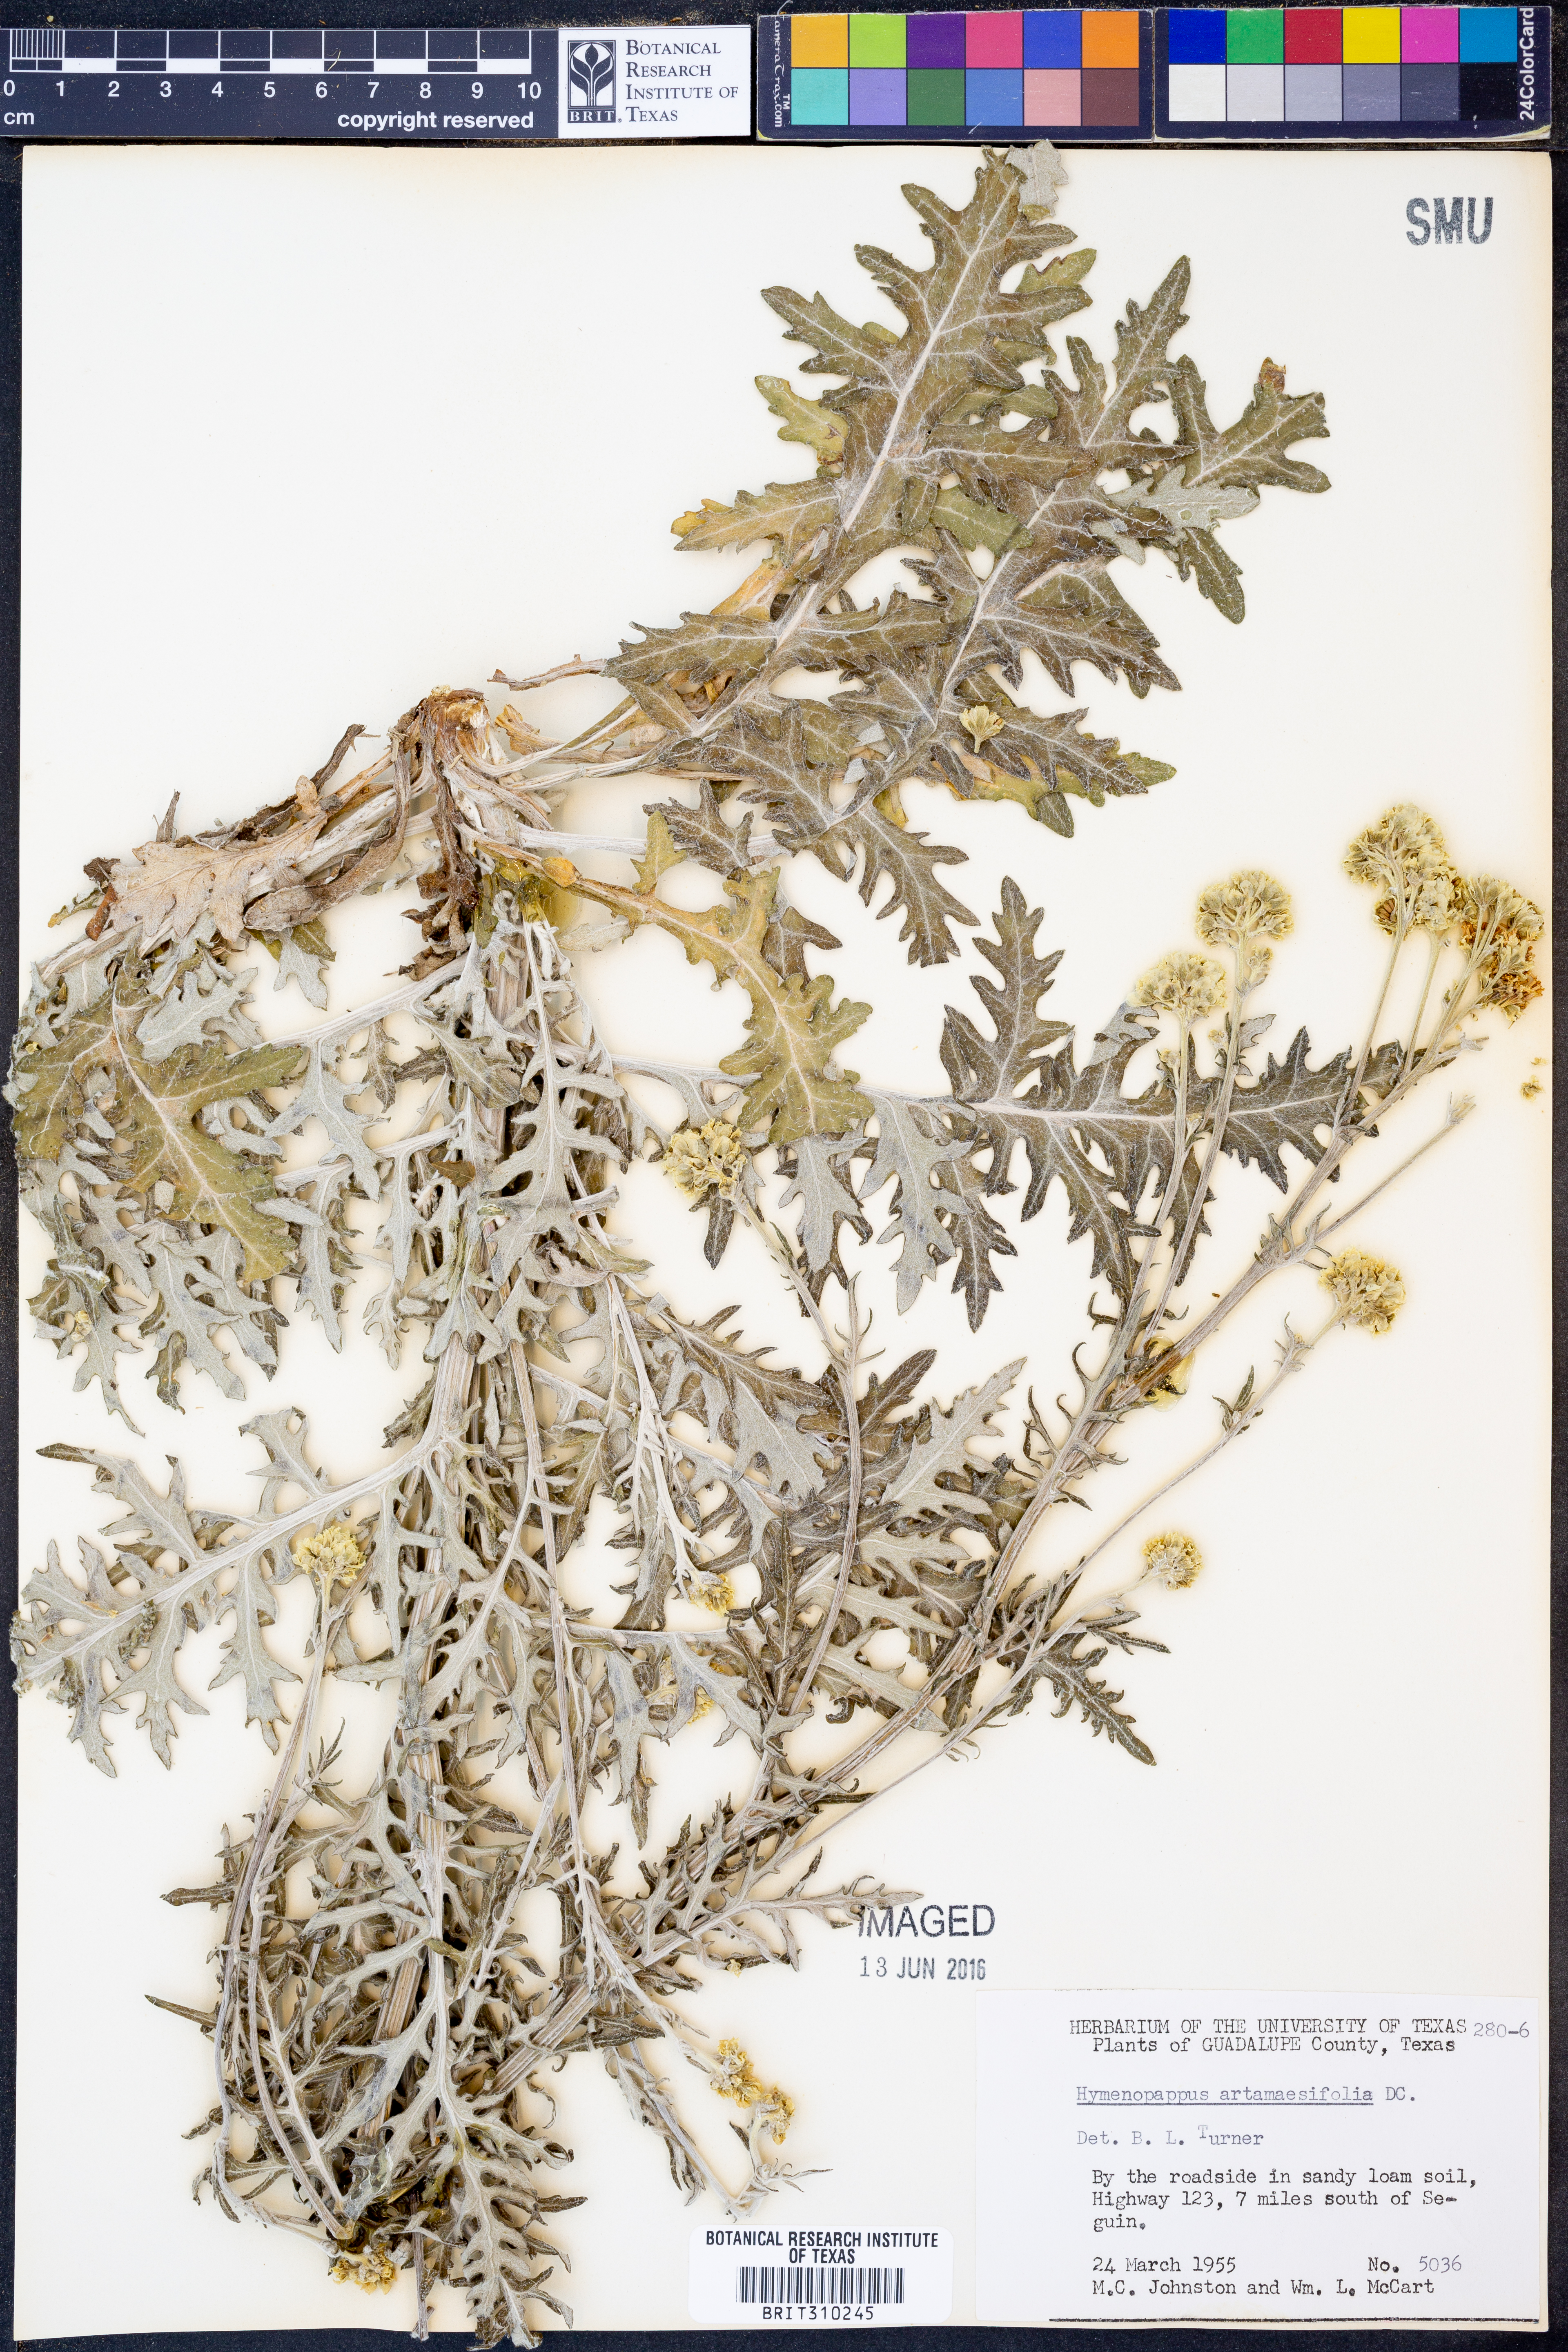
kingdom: Plantae
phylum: Tracheophyta
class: Magnoliopsida
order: Asterales
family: Asteraceae
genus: Hymenopappus
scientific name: Hymenopappus artemisiifolius
